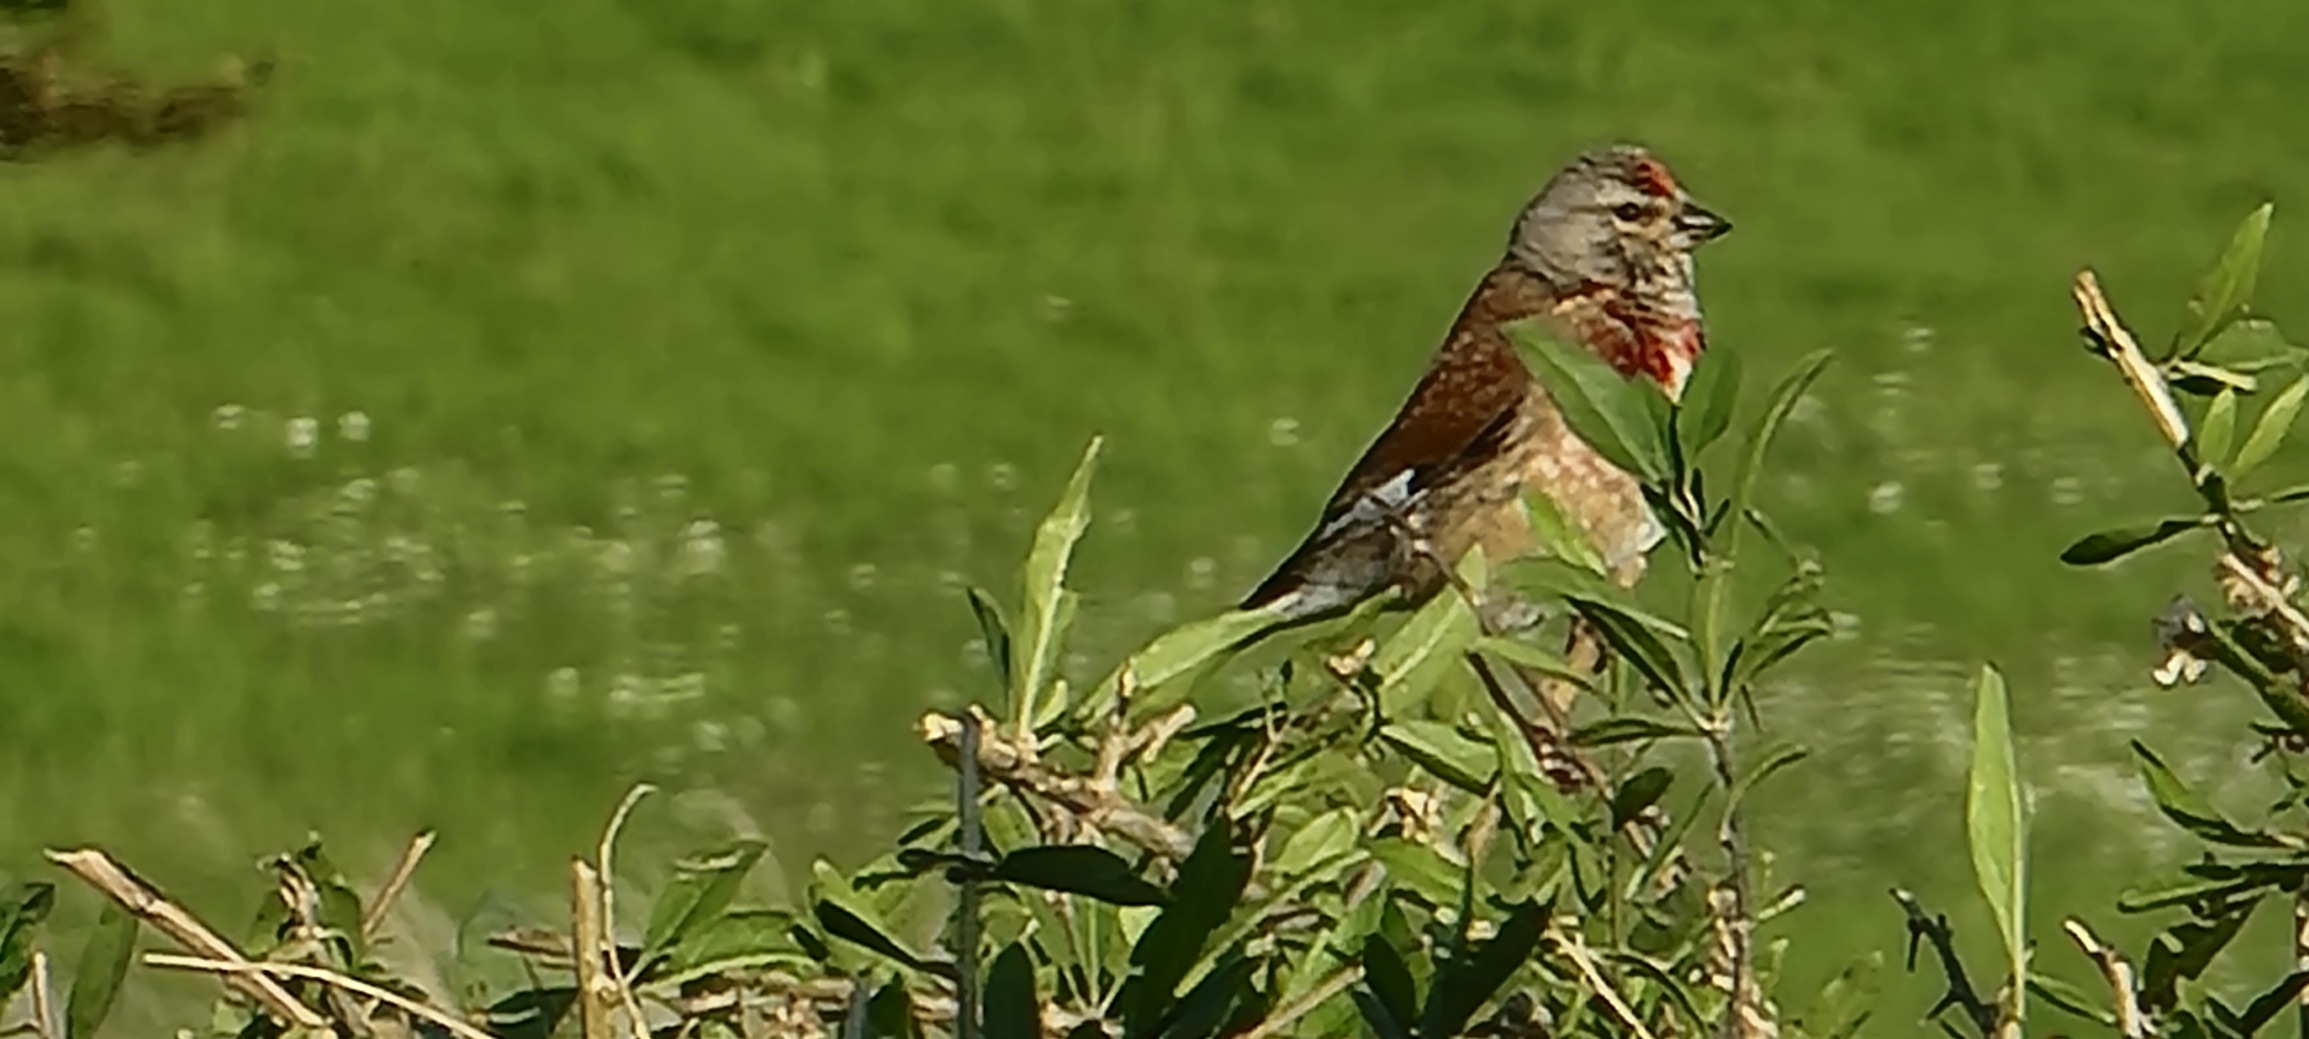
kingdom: Animalia
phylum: Chordata
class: Aves
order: Passeriformes
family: Fringillidae
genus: Linaria
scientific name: Linaria cannabina
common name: Tornirisk
